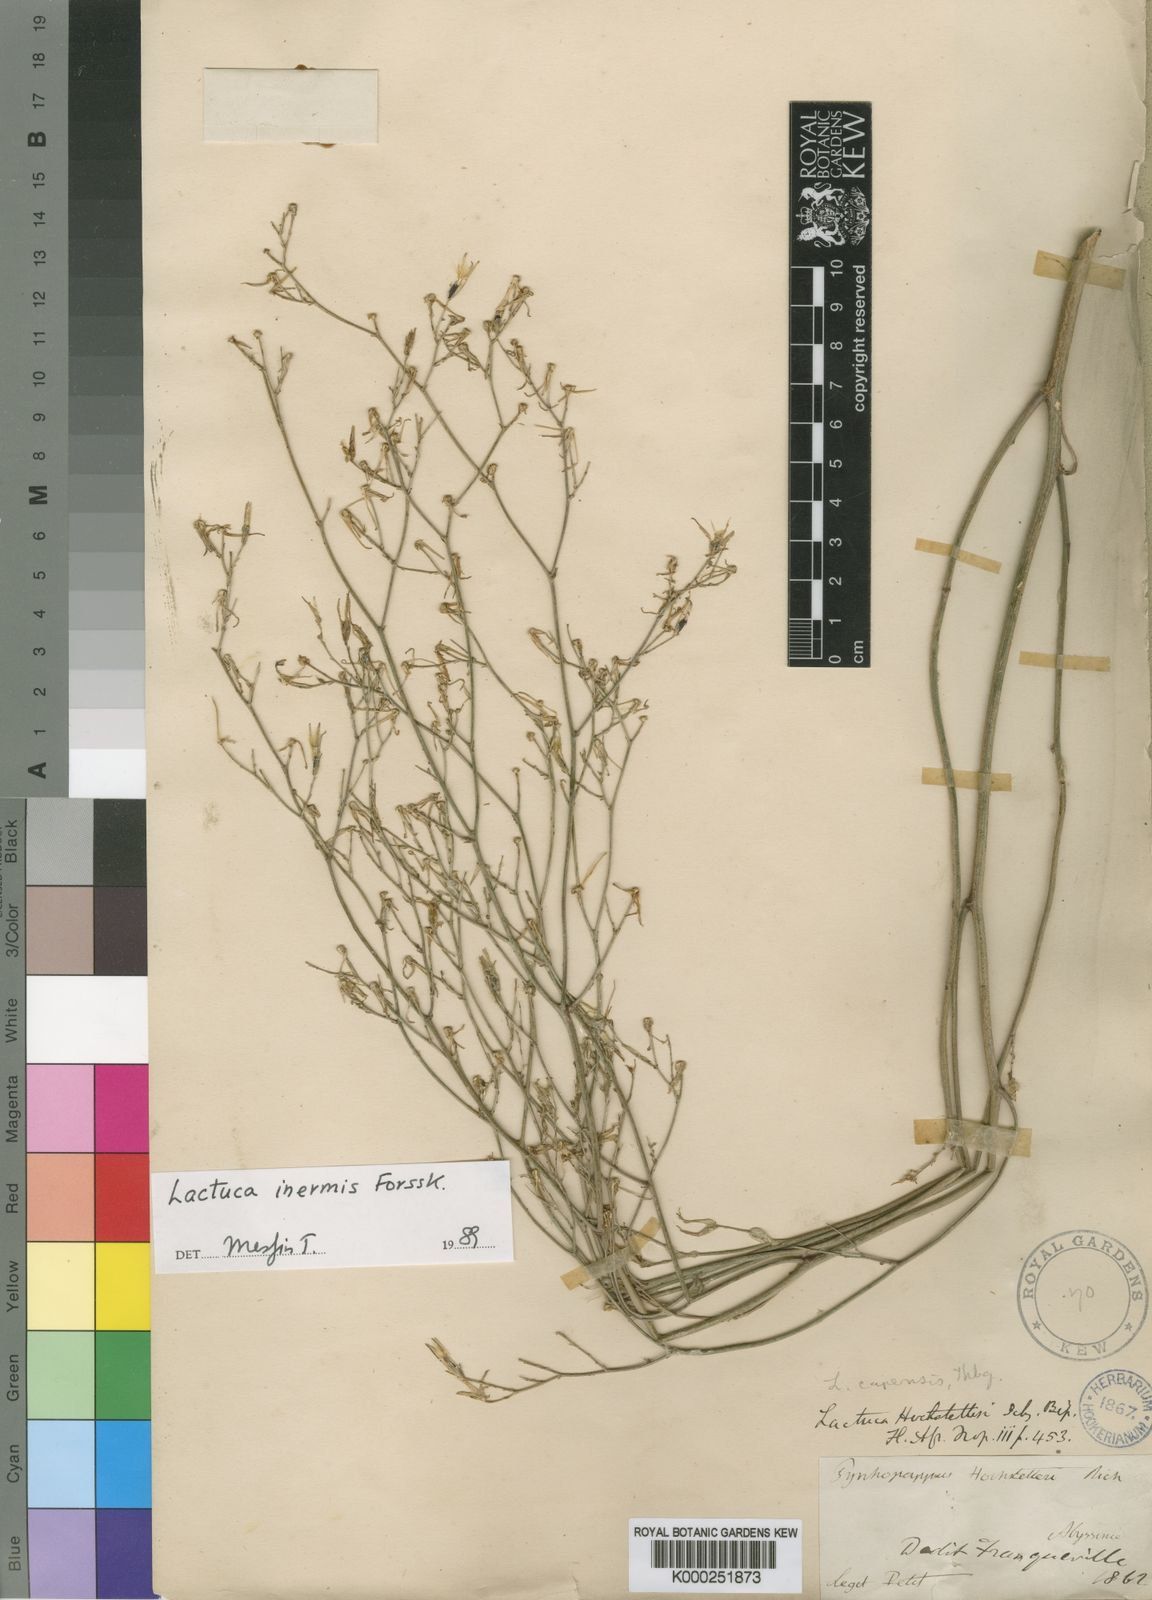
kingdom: Plantae
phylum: Tracheophyta
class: Magnoliopsida
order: Asterales
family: Asteraceae
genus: Lactuca
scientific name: Lactuca inermis
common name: Wild lettuce
